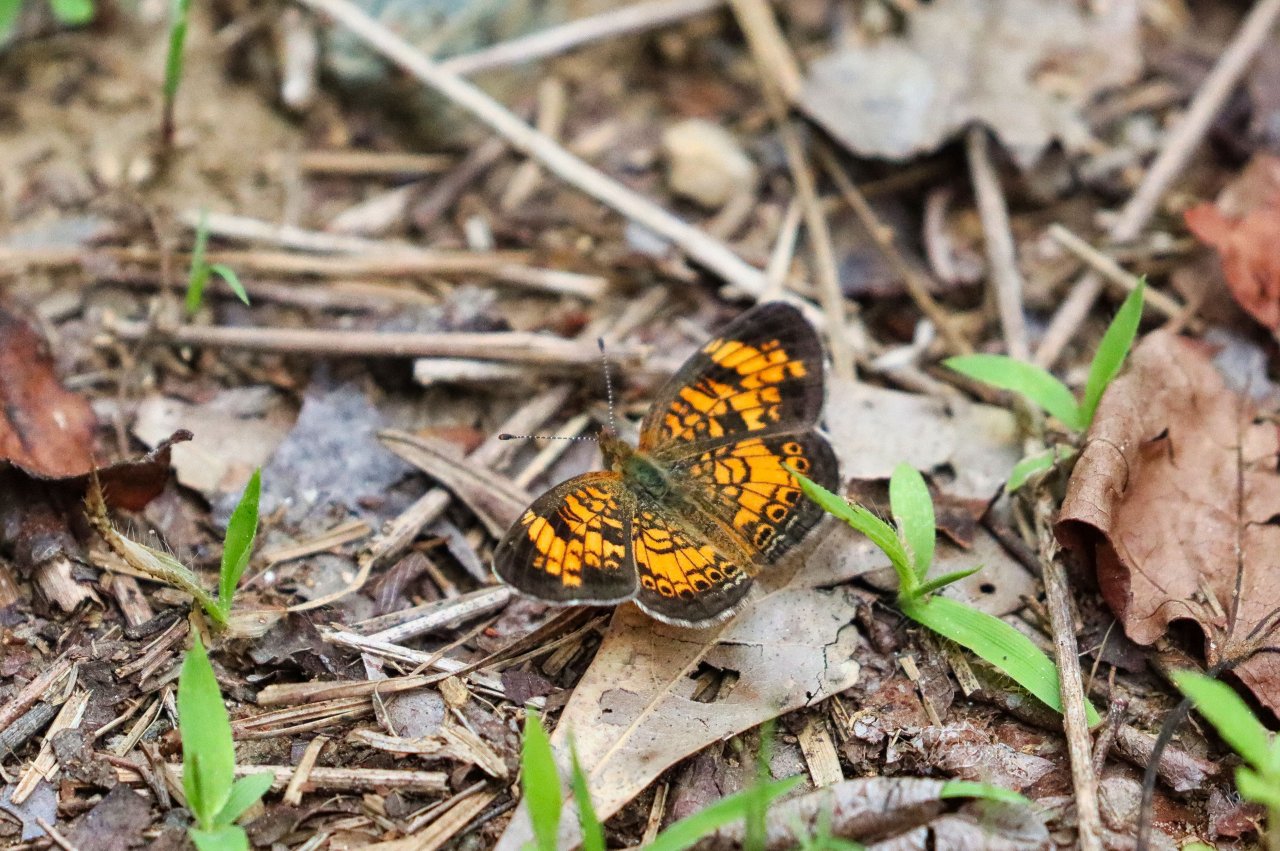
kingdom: Animalia
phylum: Arthropoda
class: Insecta
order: Lepidoptera
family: Nymphalidae
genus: Phyciodes
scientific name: Phyciodes tharos
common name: Pearl Crescent
